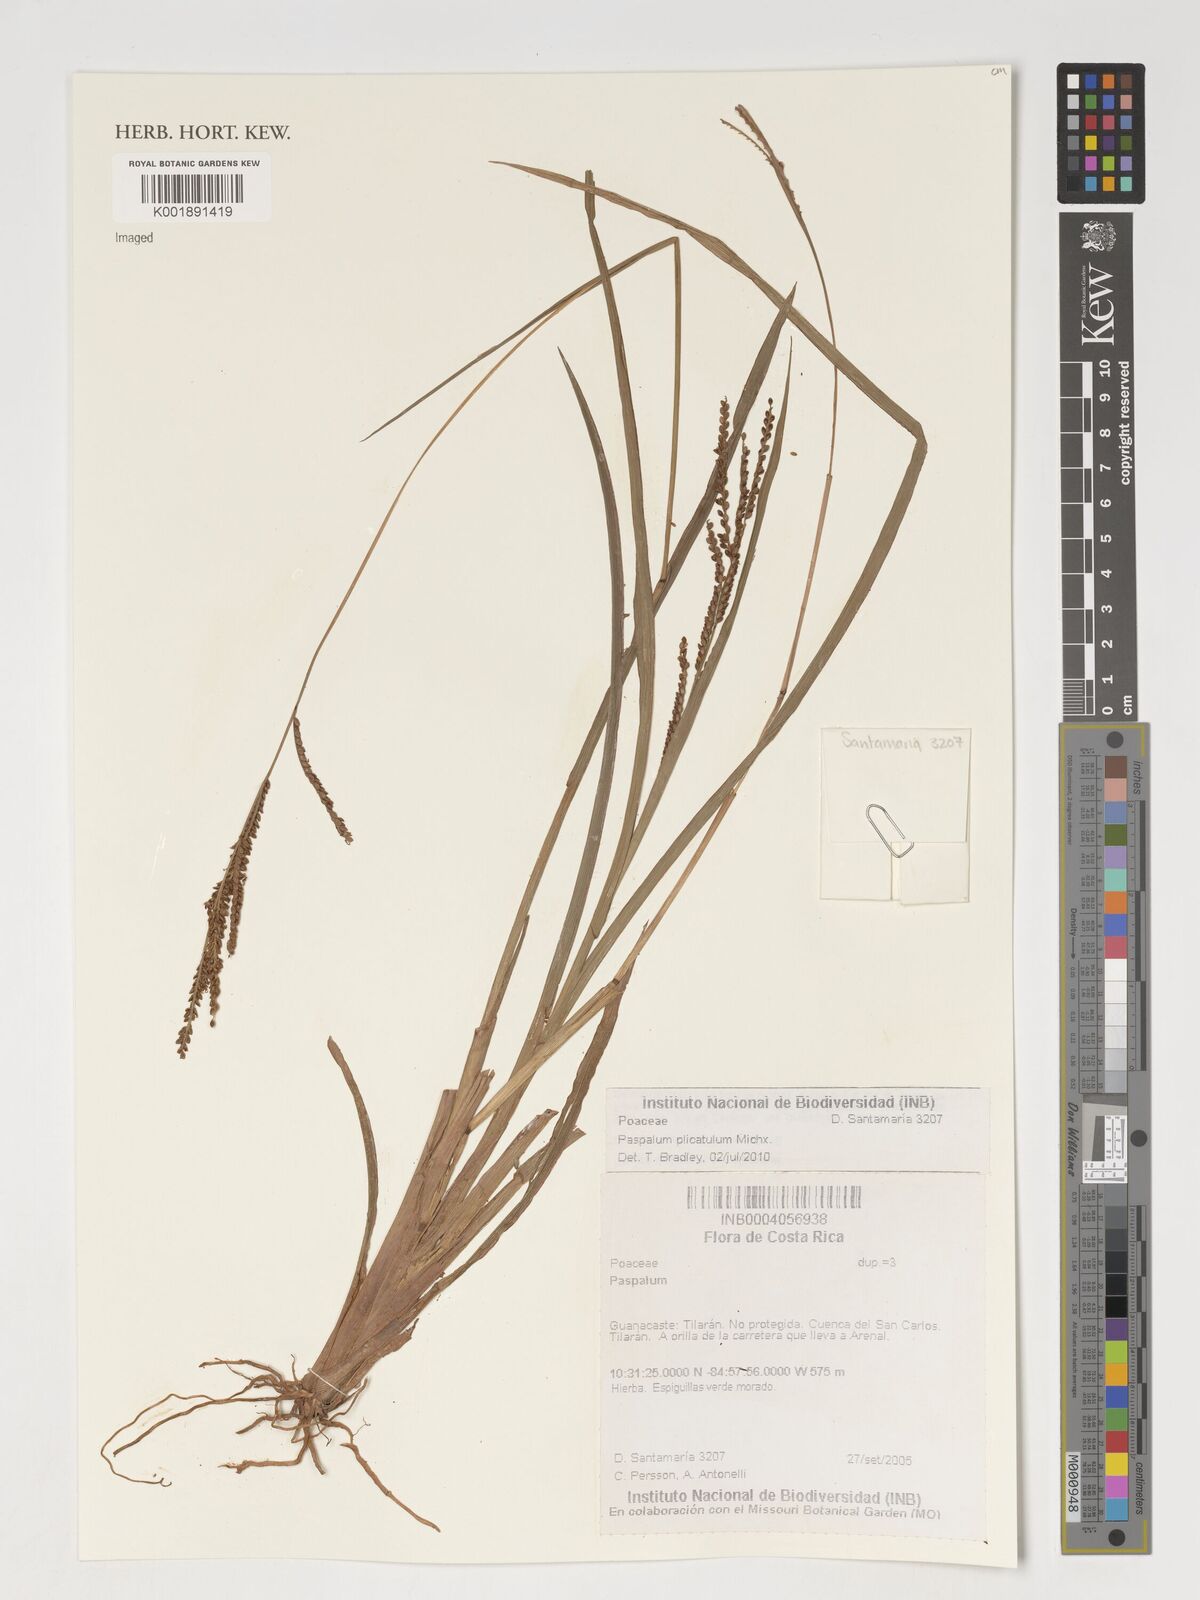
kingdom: Plantae
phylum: Tracheophyta
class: Liliopsida
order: Poales
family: Poaceae
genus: Paspalum
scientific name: Paspalum plicatulum
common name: Top paspalum
